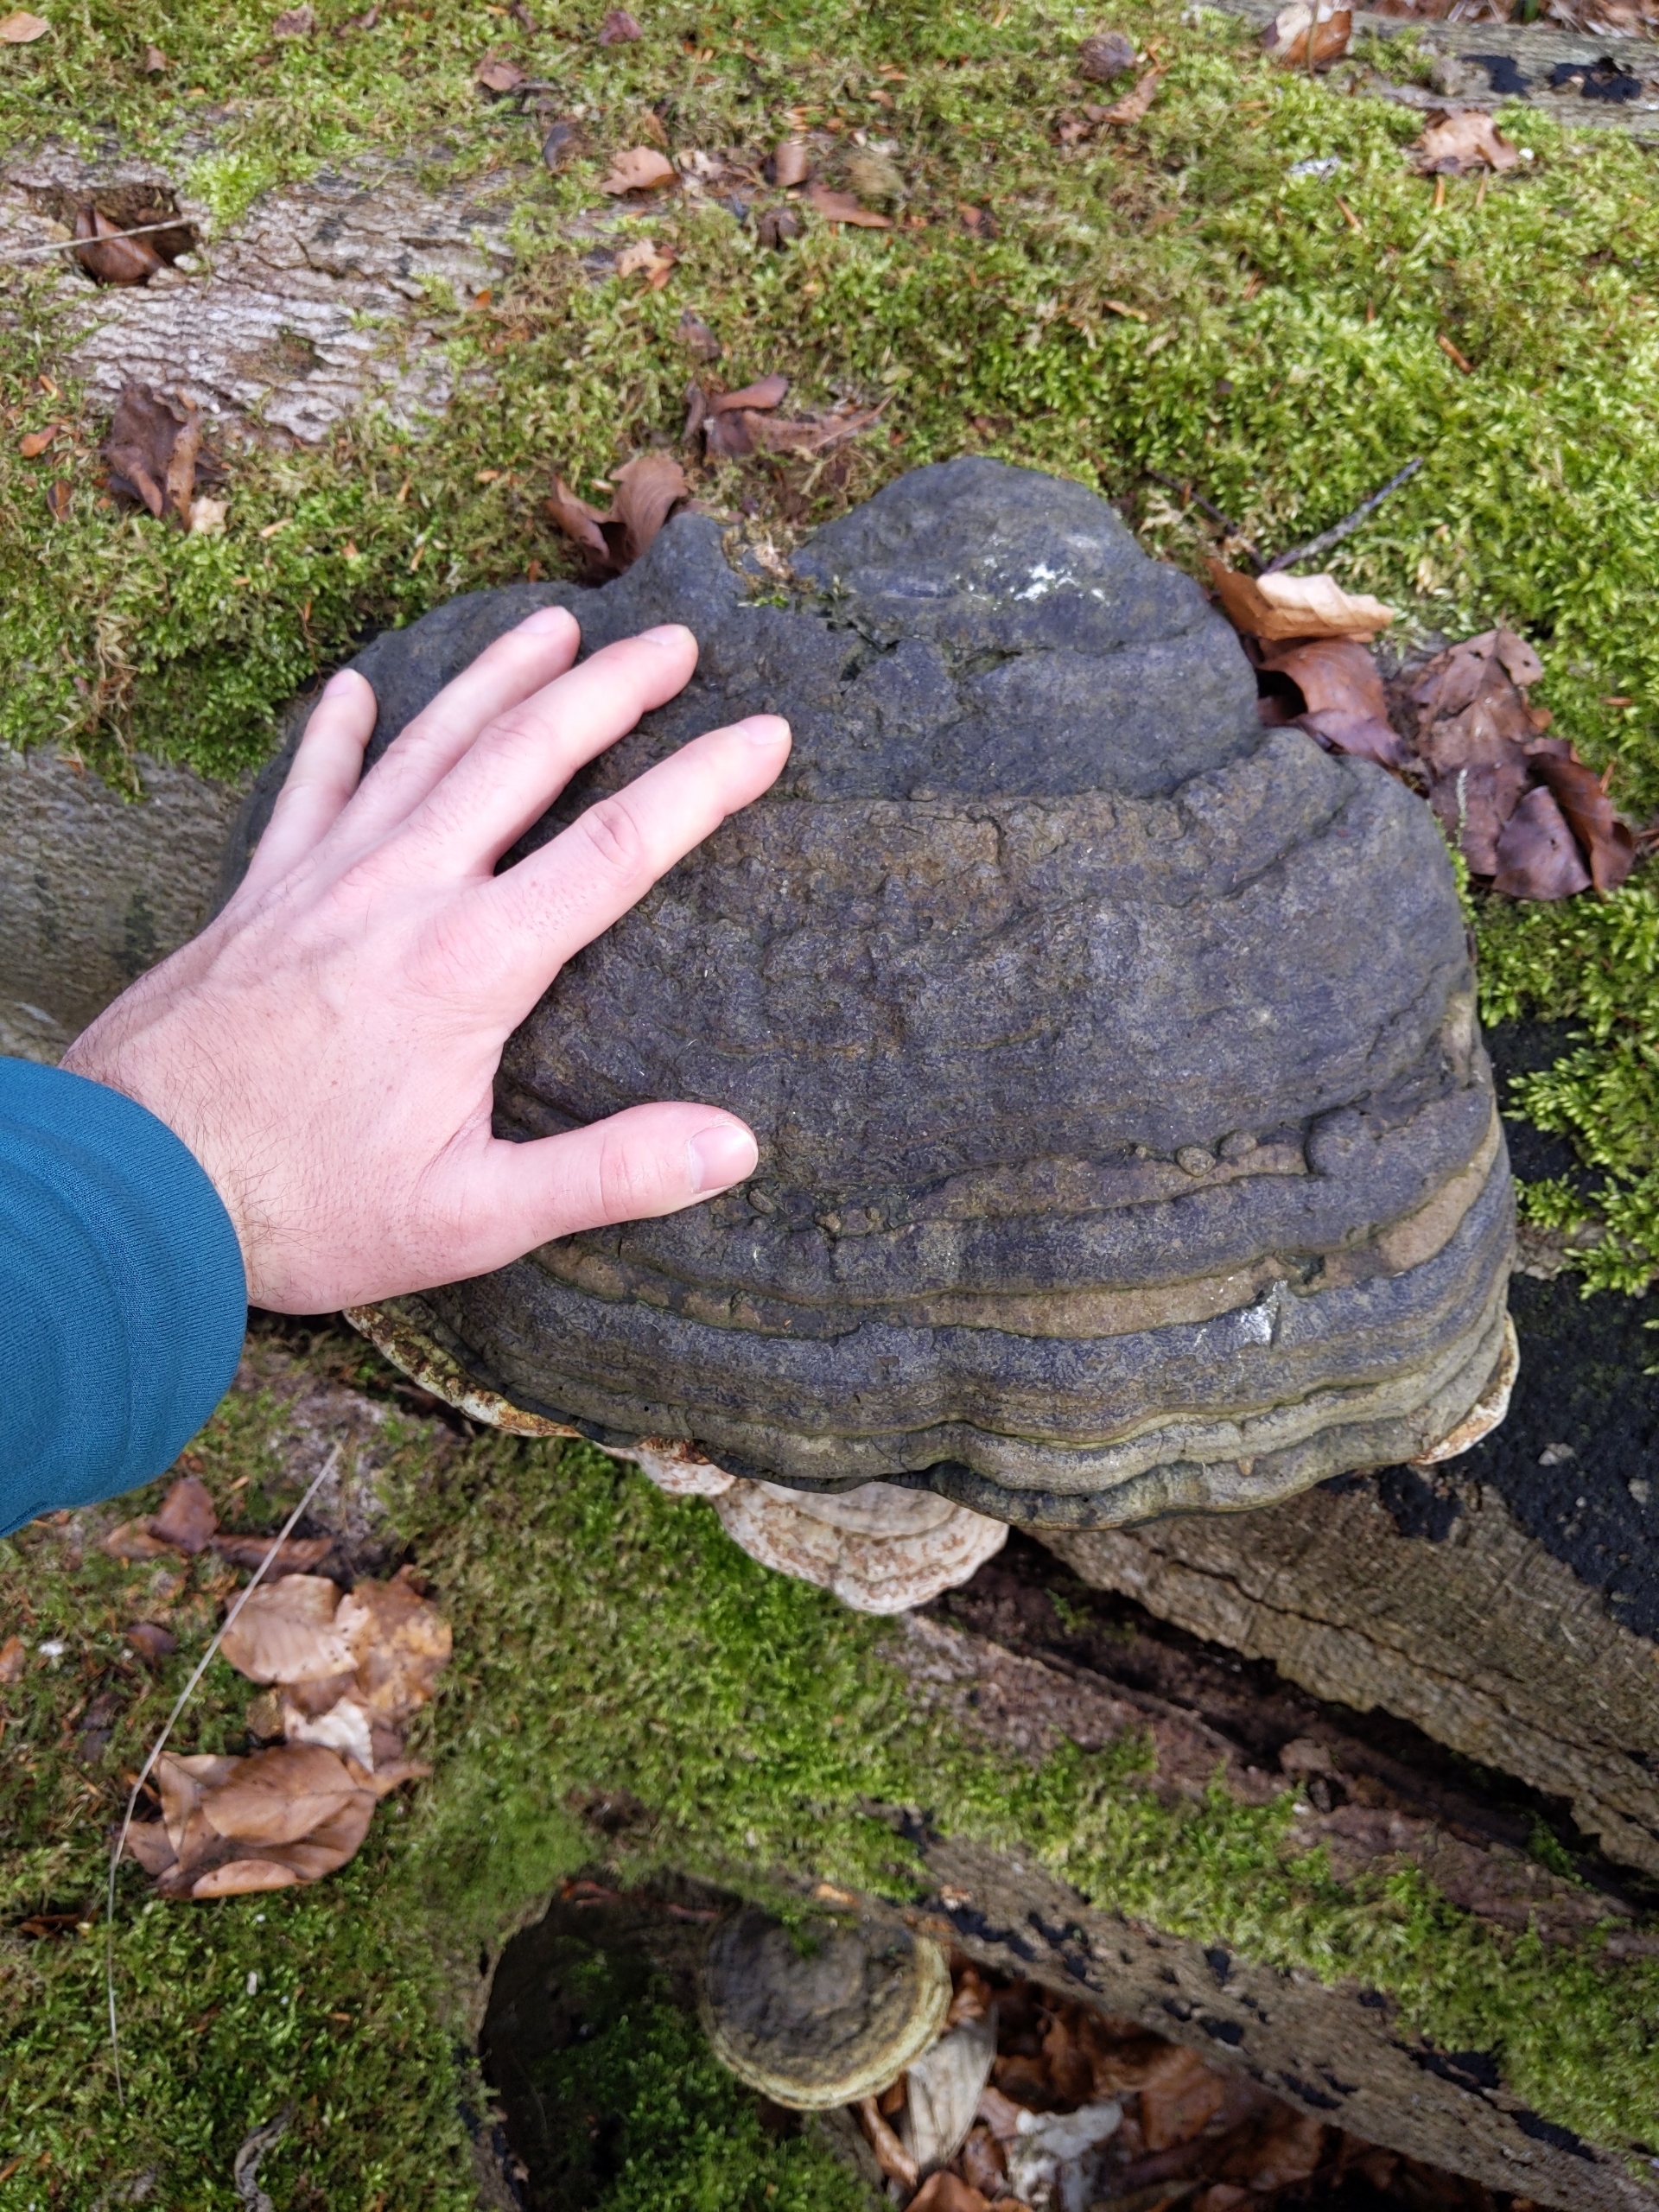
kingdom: Fungi
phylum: Basidiomycota
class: Agaricomycetes
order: Polyporales
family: Polyporaceae
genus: Fomes
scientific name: Fomes fomentarius
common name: Tøndersvamp
